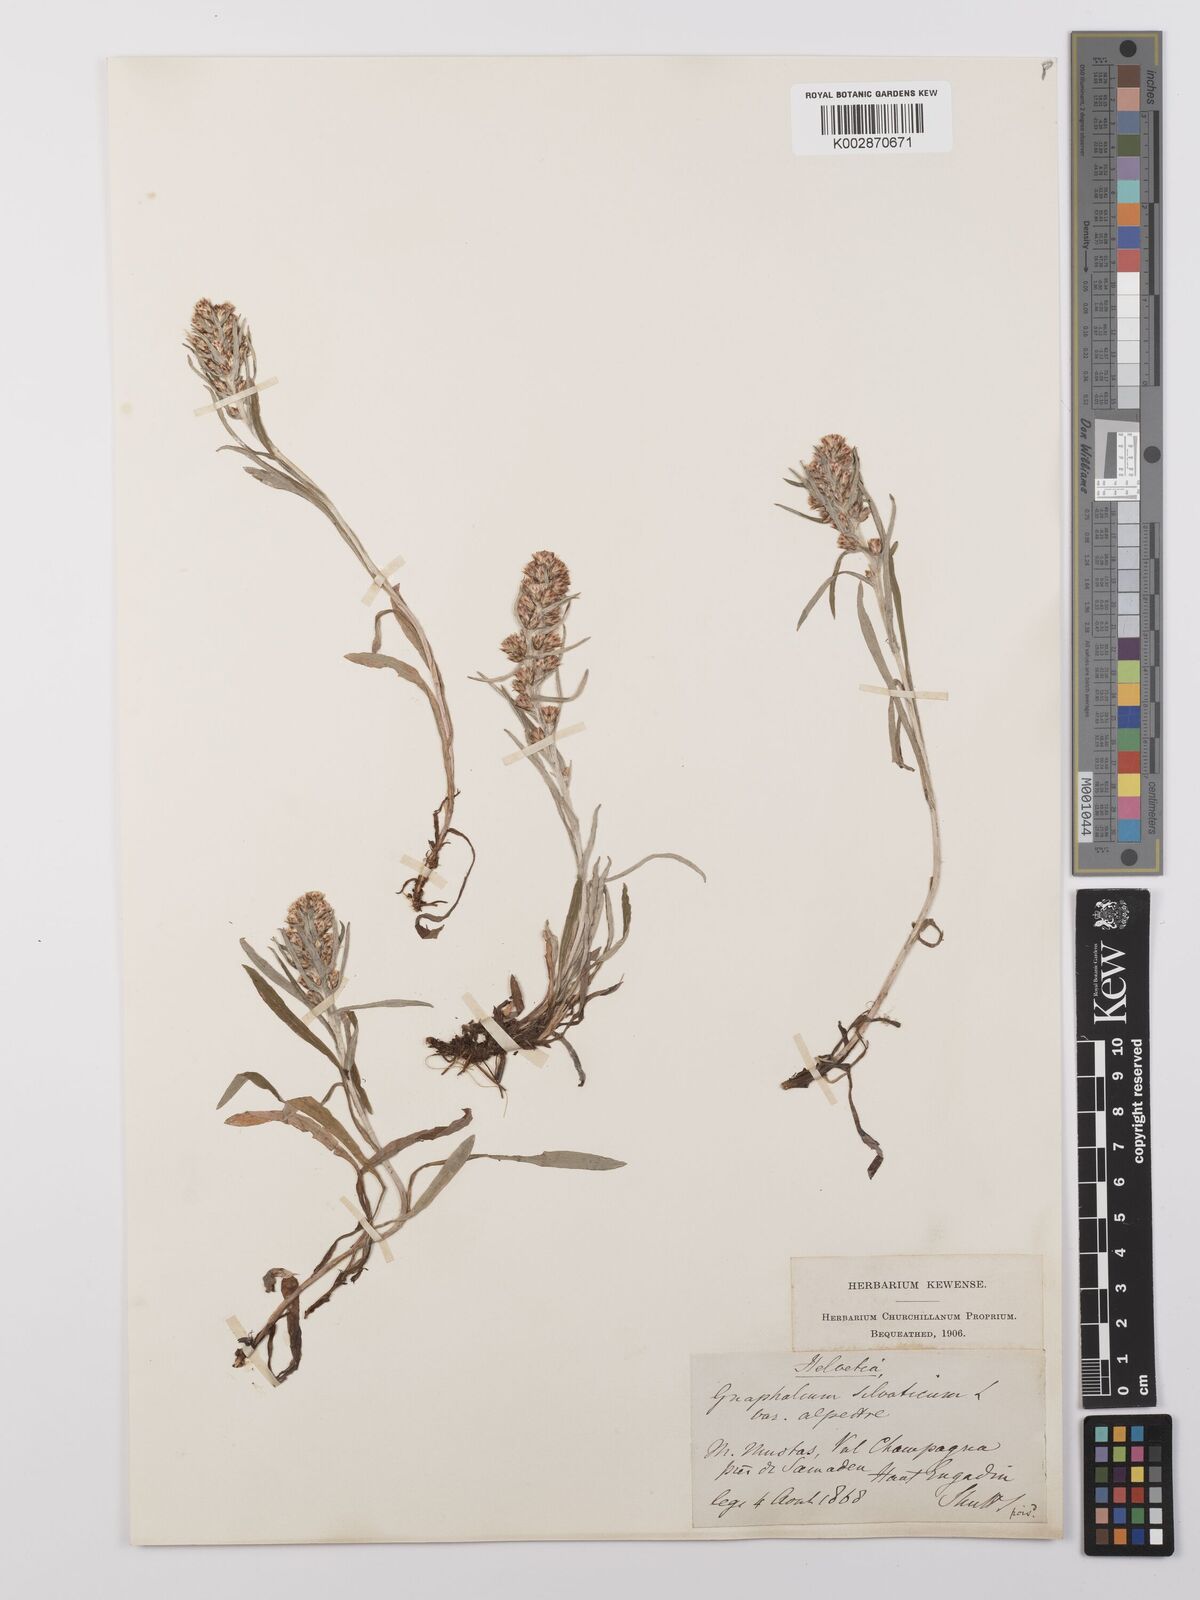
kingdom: Plantae
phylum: Tracheophyta
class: Magnoliopsida
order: Asterales
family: Asteraceae
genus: Omalotheca
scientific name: Omalotheca sylvatica
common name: Heath cudweed
